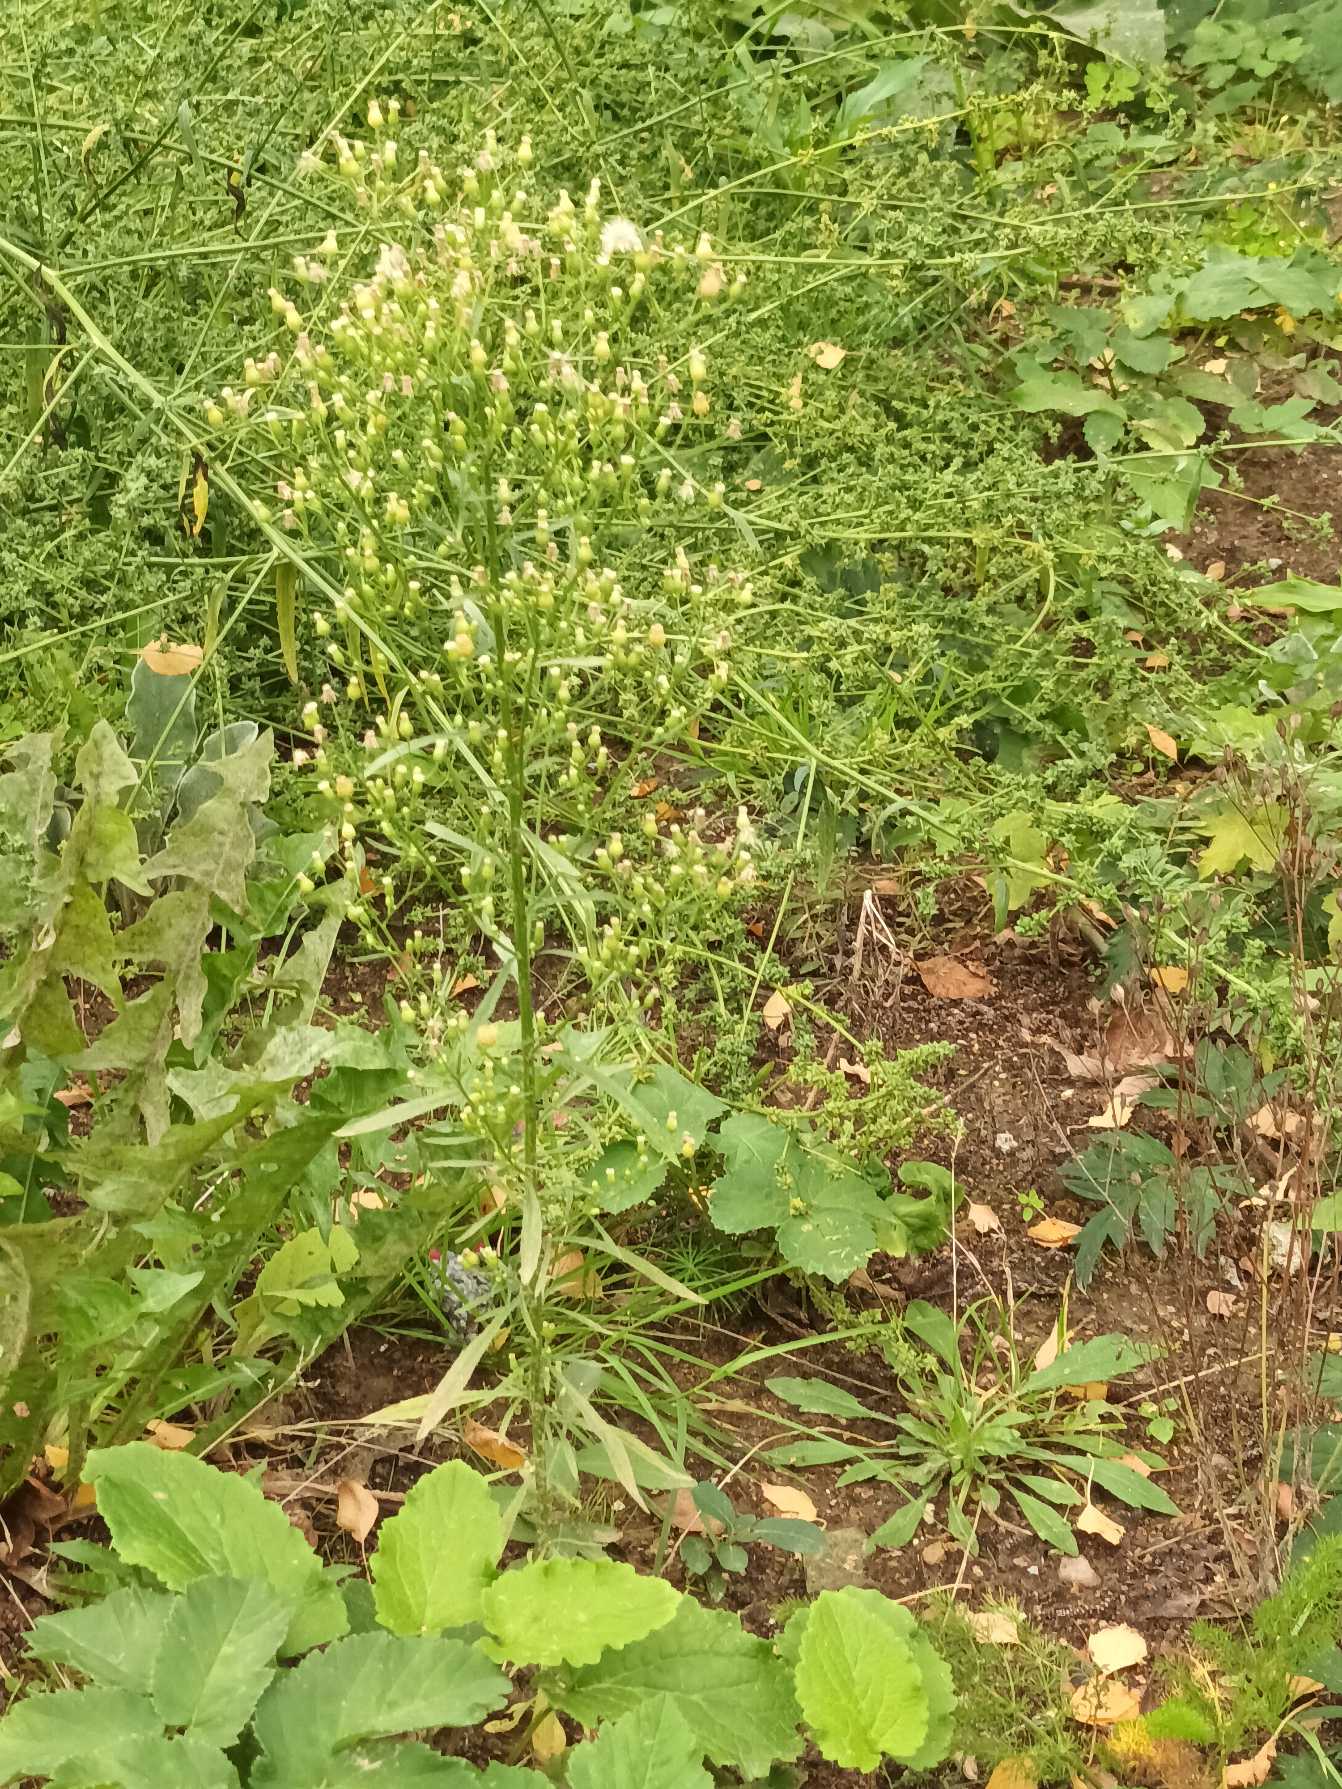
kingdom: Plantae
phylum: Tracheophyta
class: Magnoliopsida
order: Asterales
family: Asteraceae
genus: Erigeron
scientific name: Erigeron canadensis
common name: Kanadisk bakkestjerne
